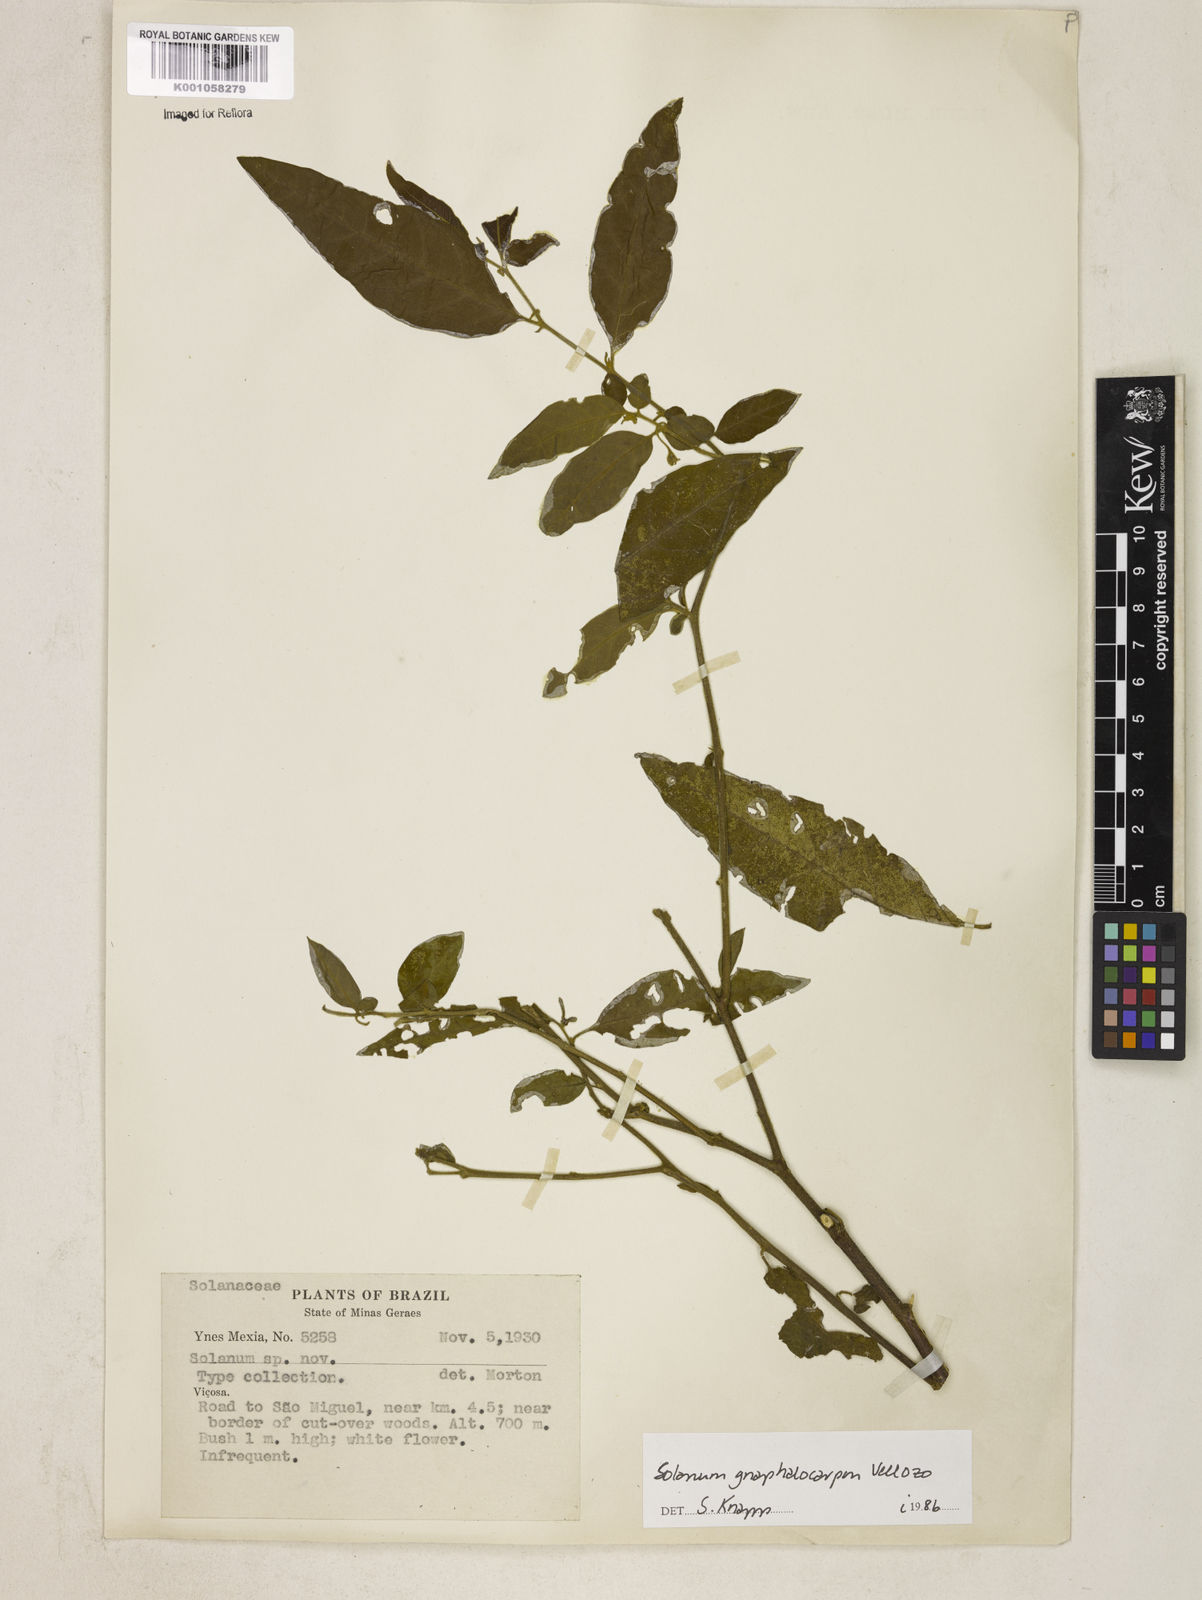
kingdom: Plantae
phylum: Tracheophyta
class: Magnoliopsida
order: Solanales
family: Solanaceae
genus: Solanum
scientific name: Solanum gnaphalocarpum
